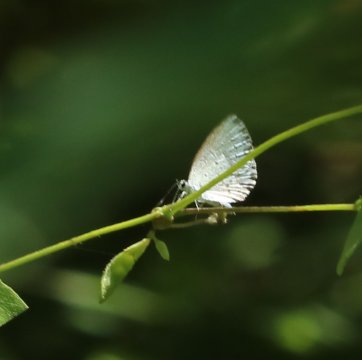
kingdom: Animalia
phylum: Arthropoda
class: Insecta
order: Lepidoptera
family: Lycaenidae
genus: Celastrina
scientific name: Celastrina
